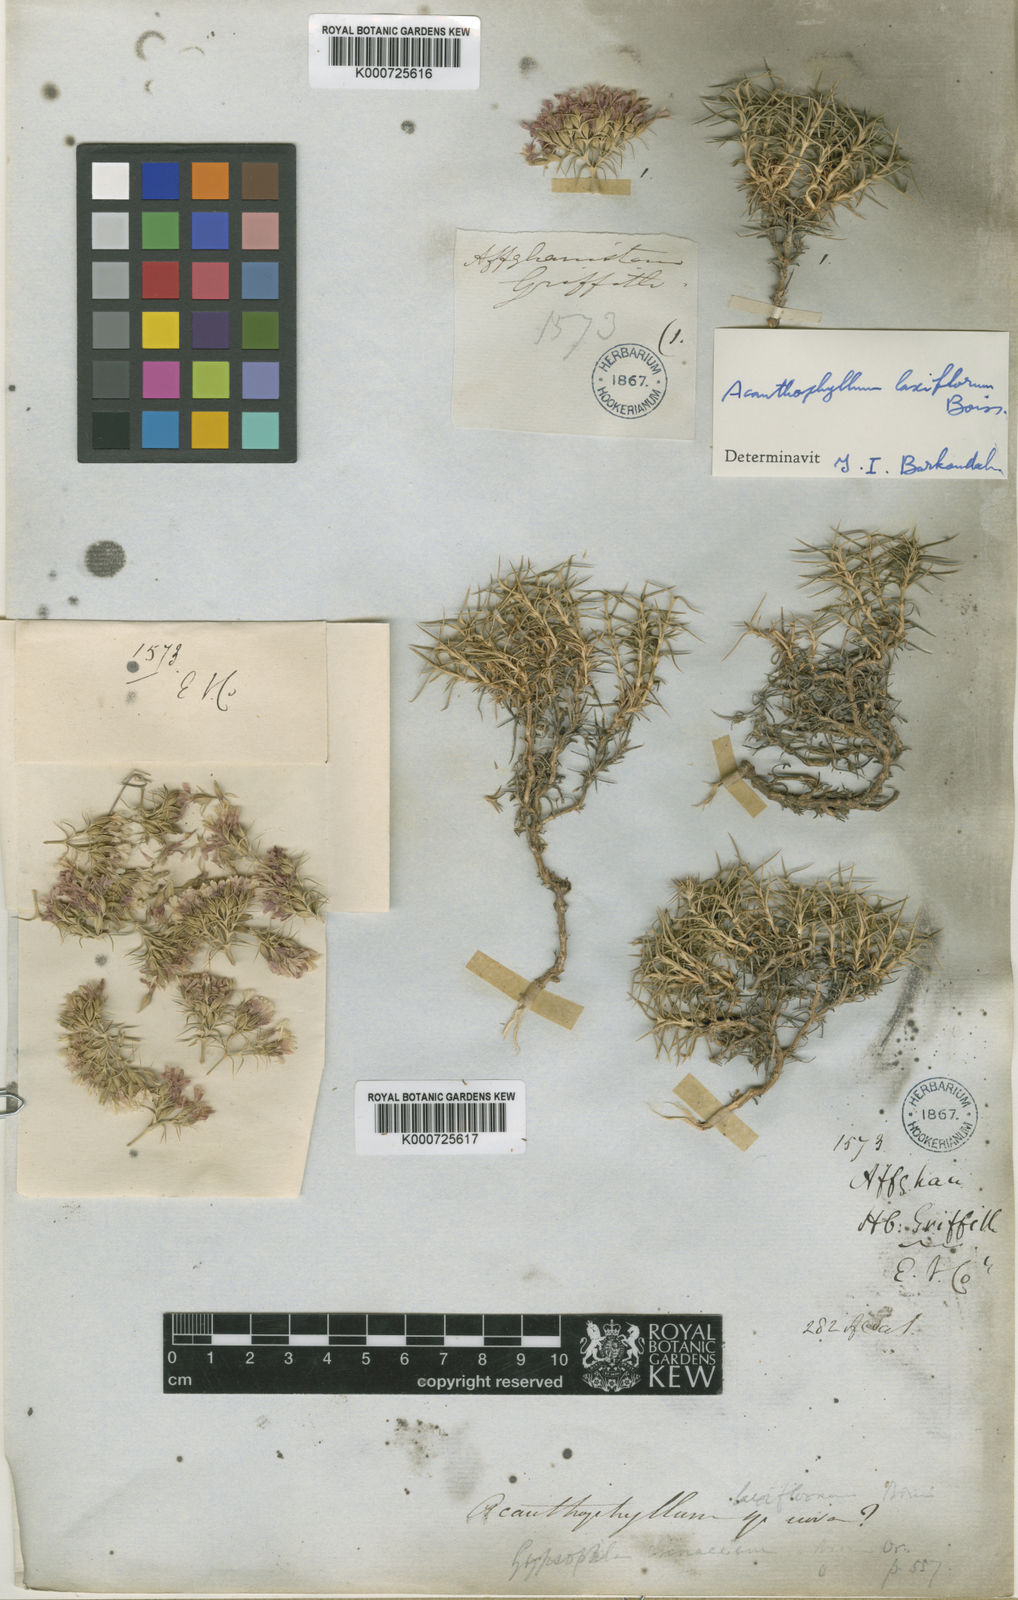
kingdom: Plantae
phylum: Tracheophyta
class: Magnoliopsida
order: Caryophyllales
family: Caryophyllaceae
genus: Acanthophyllum
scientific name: Acanthophyllum laxiflorum
